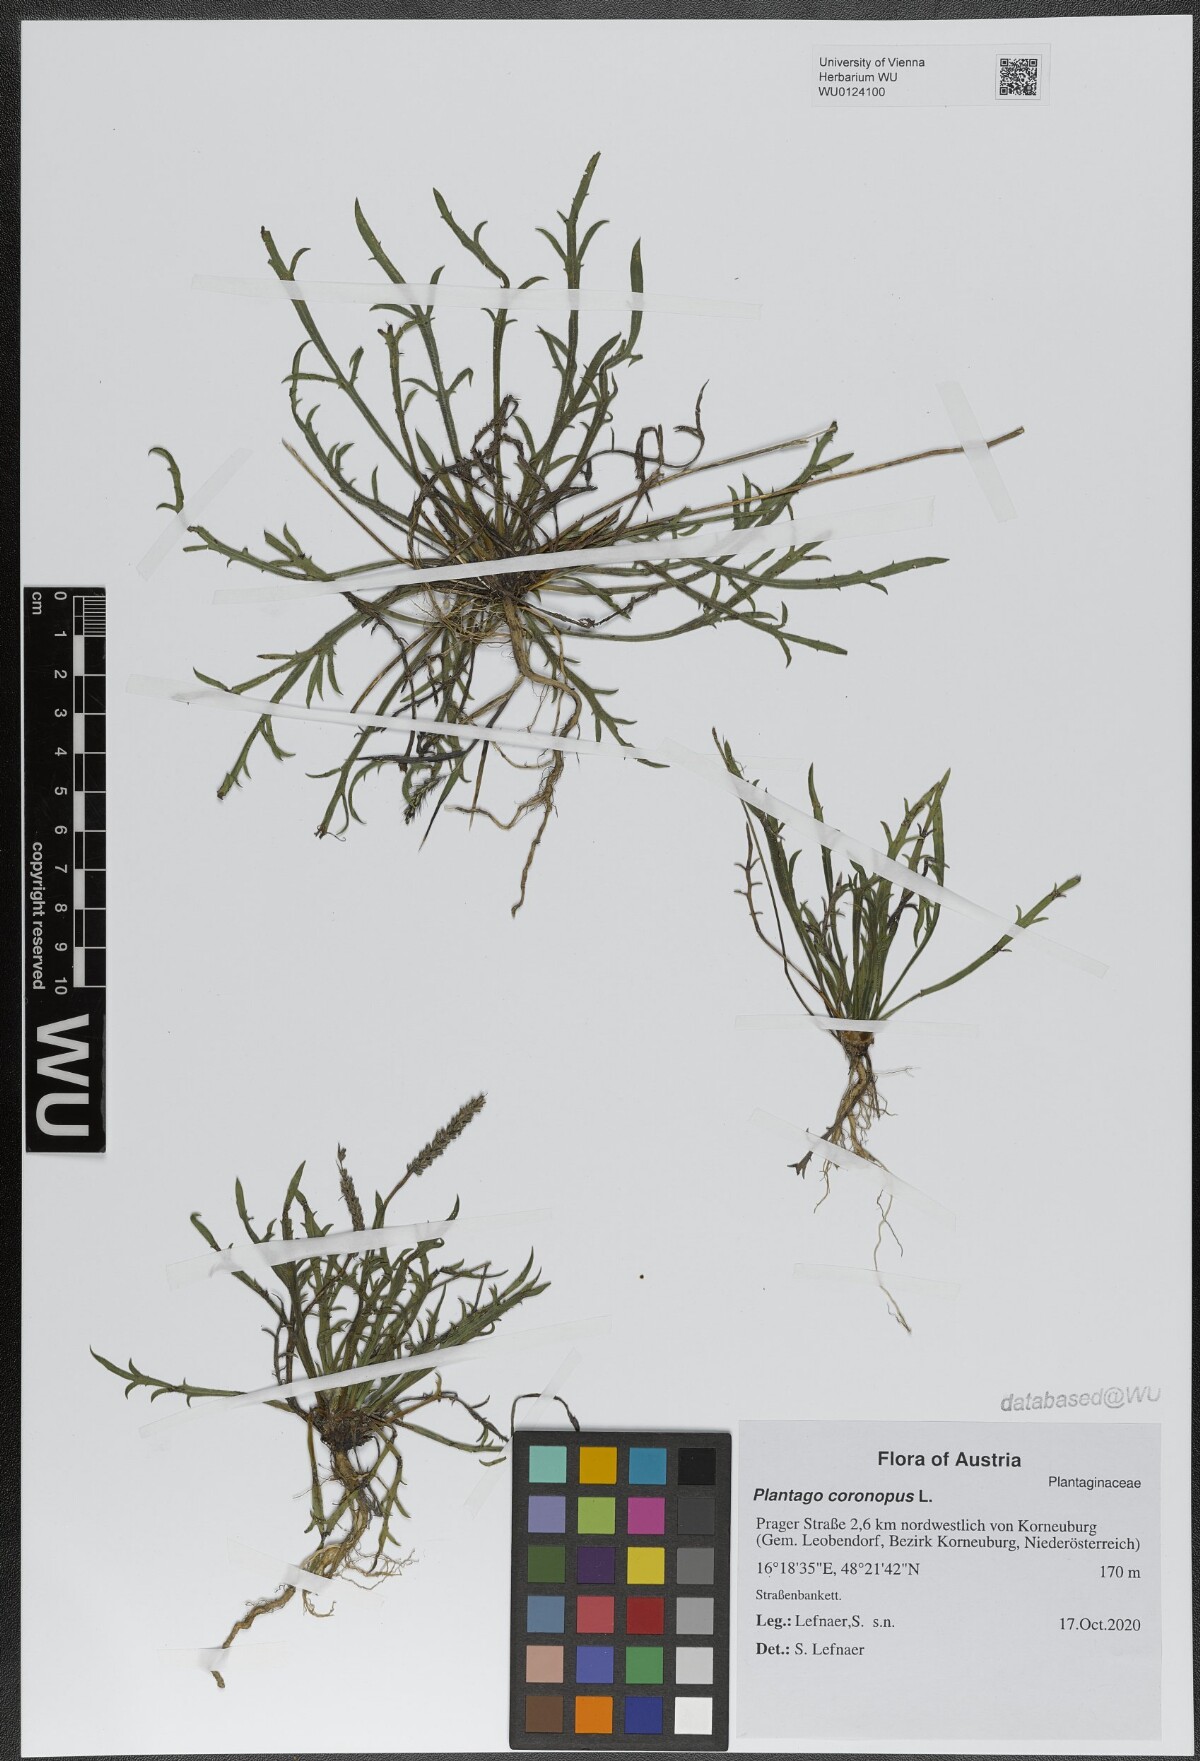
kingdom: Plantae
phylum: Tracheophyta
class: Magnoliopsida
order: Lamiales
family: Plantaginaceae
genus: Plantago
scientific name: Plantago coronopus
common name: Buck's-horn plantain
